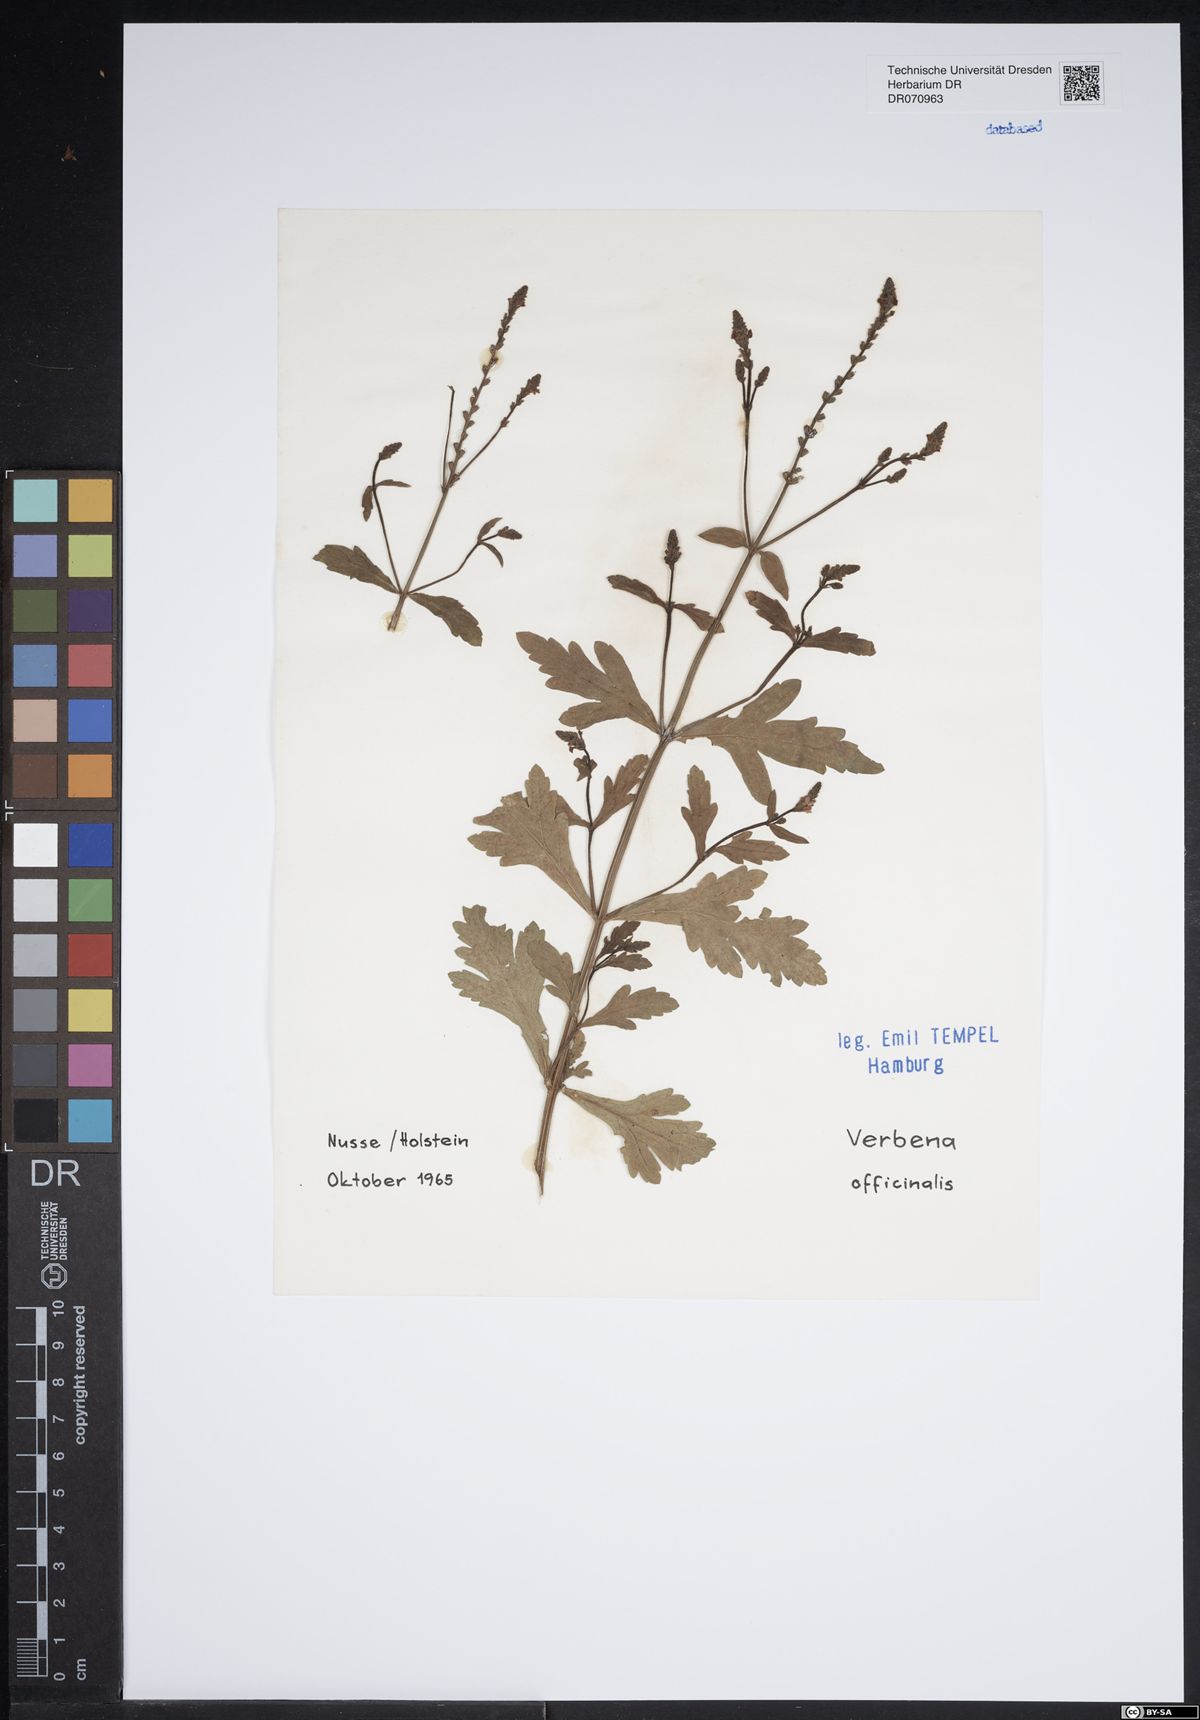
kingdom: Plantae
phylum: Tracheophyta
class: Magnoliopsida
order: Lamiales
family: Verbenaceae
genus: Verbena
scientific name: Verbena officinalis
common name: Vervain
